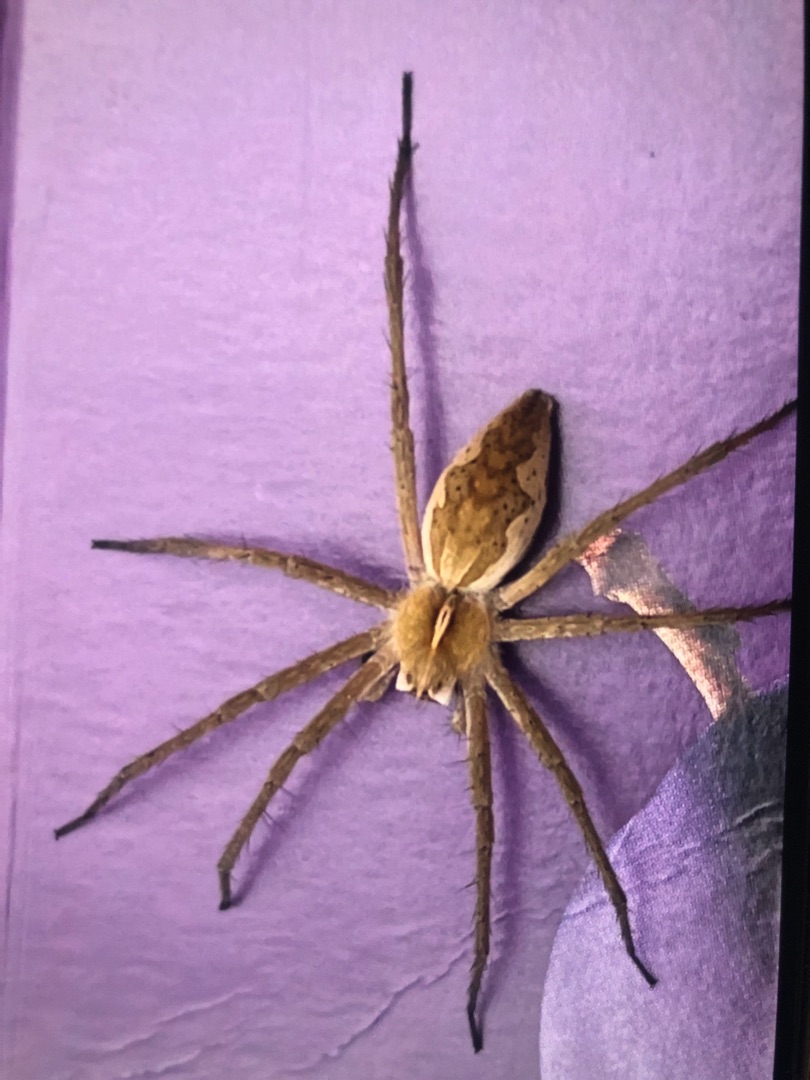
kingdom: Animalia
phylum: Arthropoda
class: Arachnida
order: Araneae
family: Pisauridae
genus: Pisaura
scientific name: Pisaura mirabilis
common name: Almindelig rovedderkop
